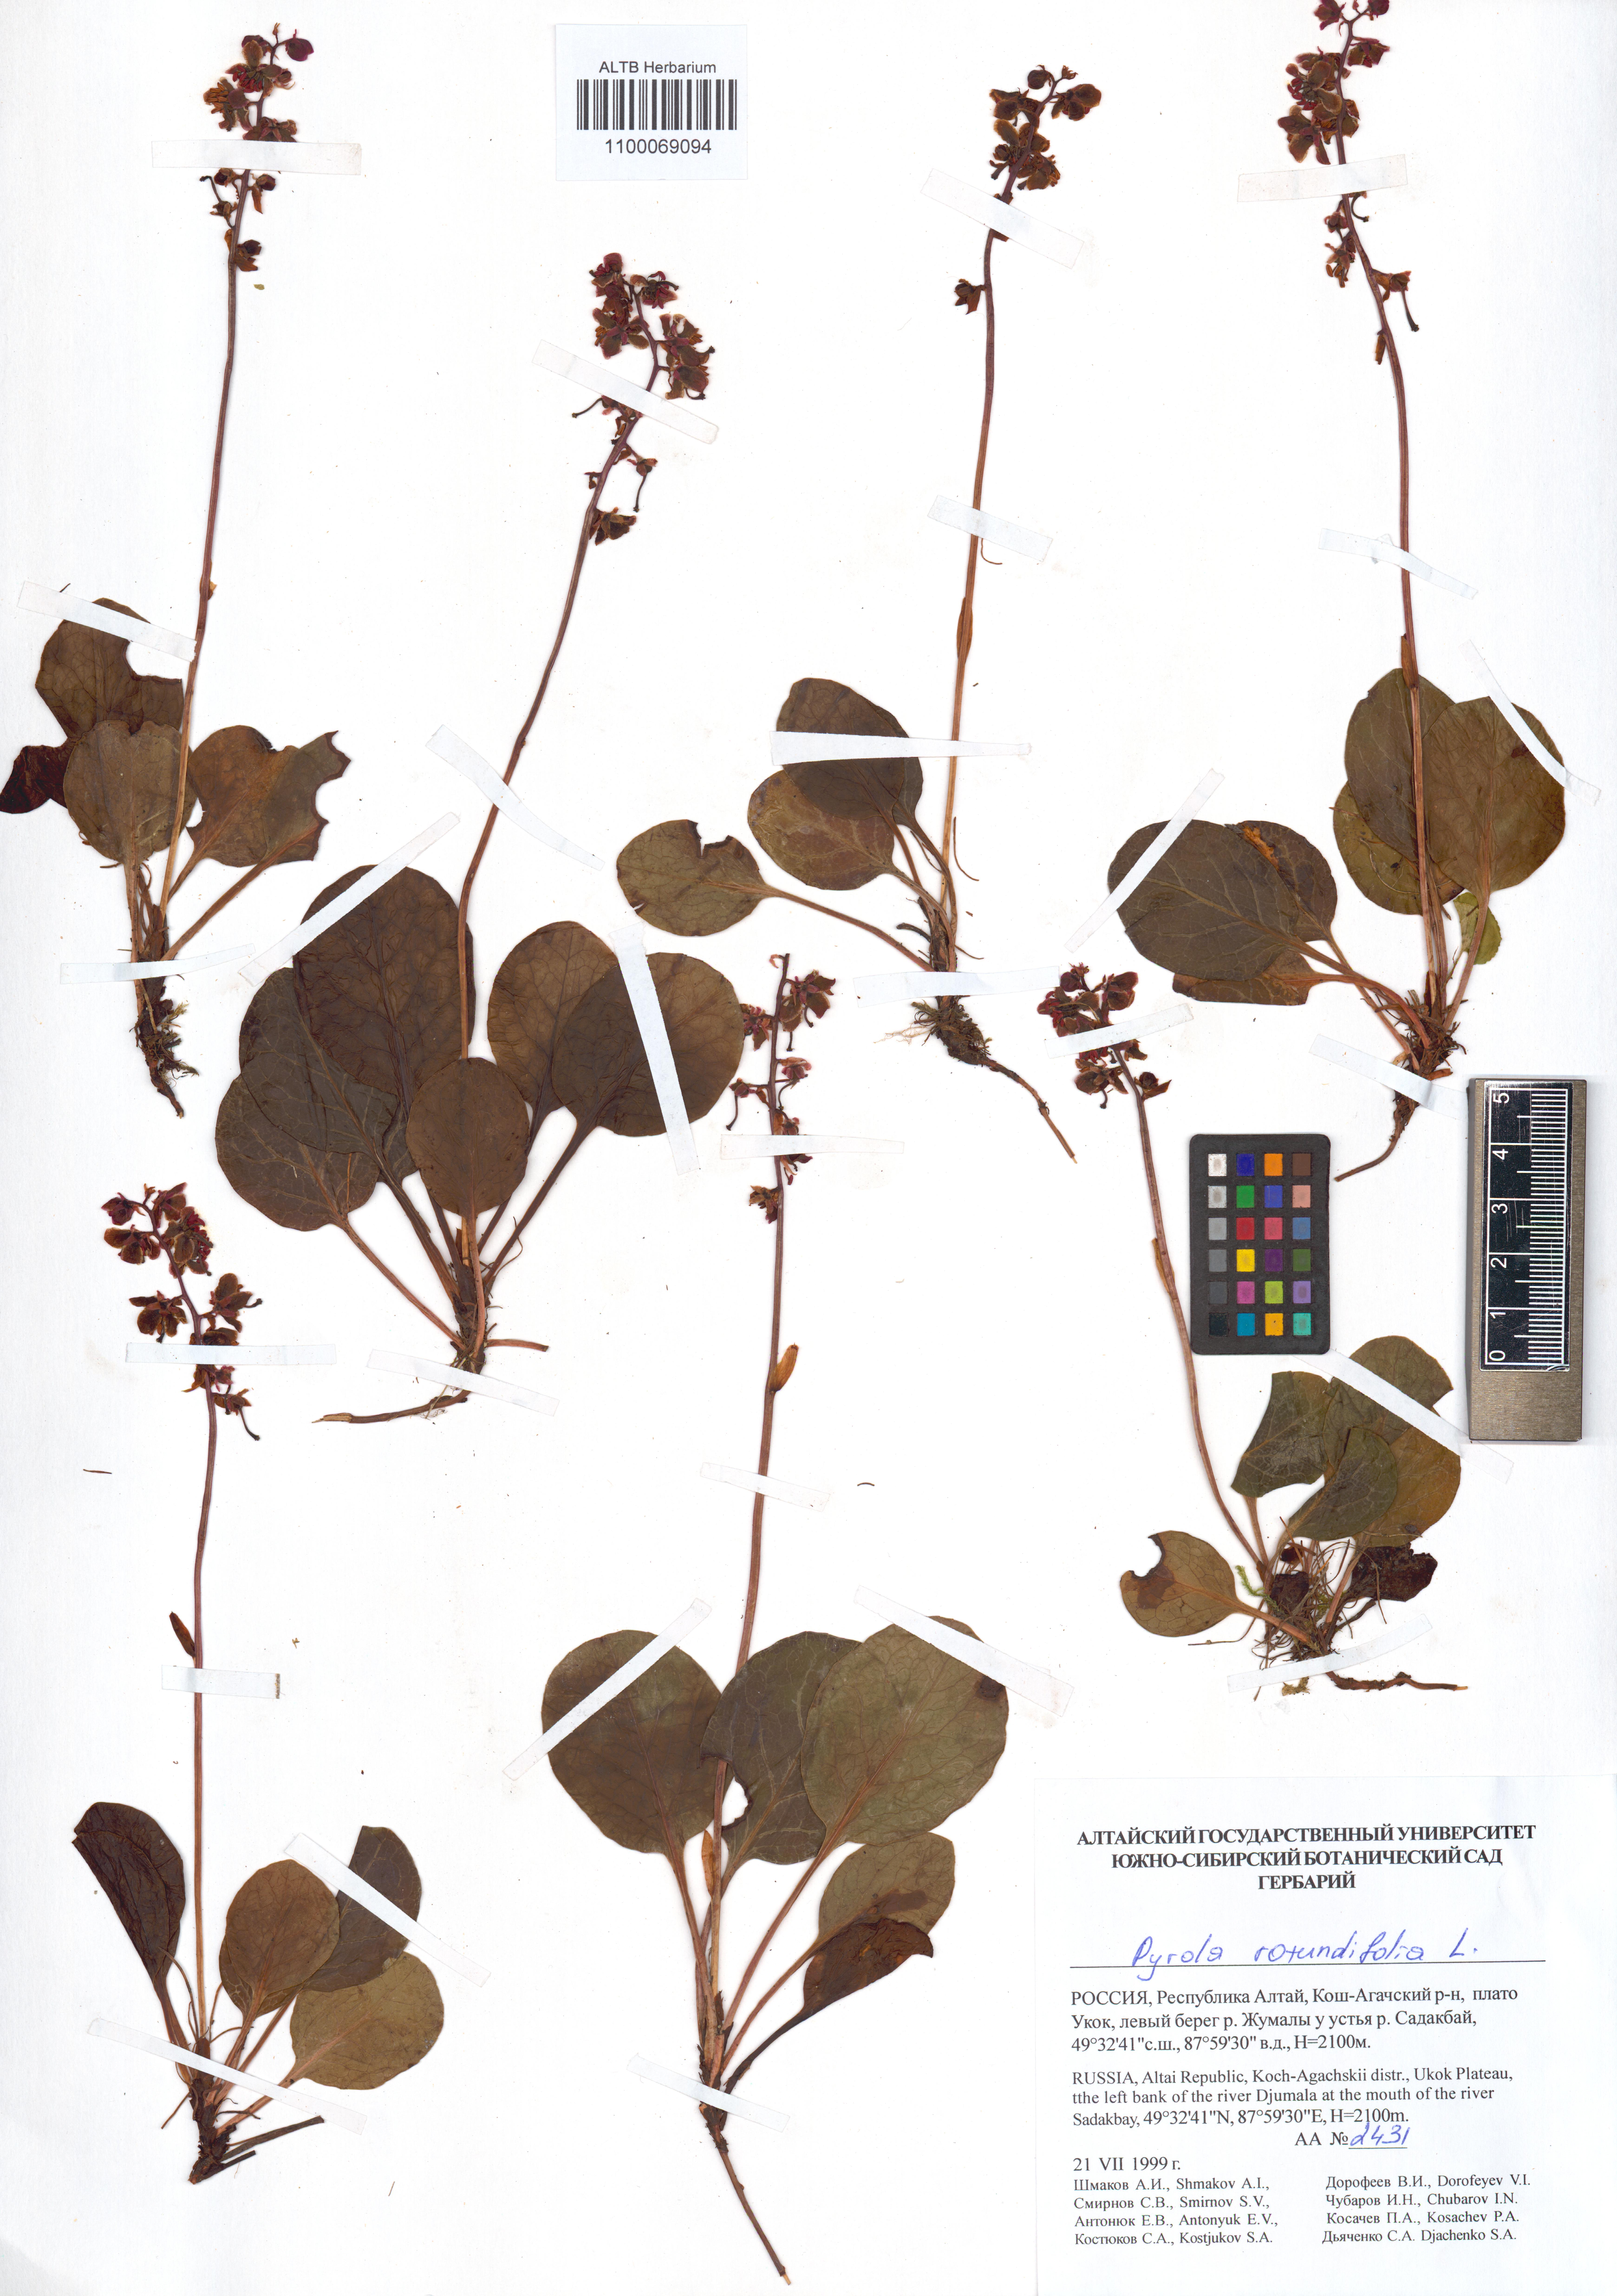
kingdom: Plantae
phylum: Tracheophyta
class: Magnoliopsida
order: Ericales
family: Ericaceae
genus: Pyrola
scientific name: Pyrola rotundifolia
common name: Round-leaved wintergreen
